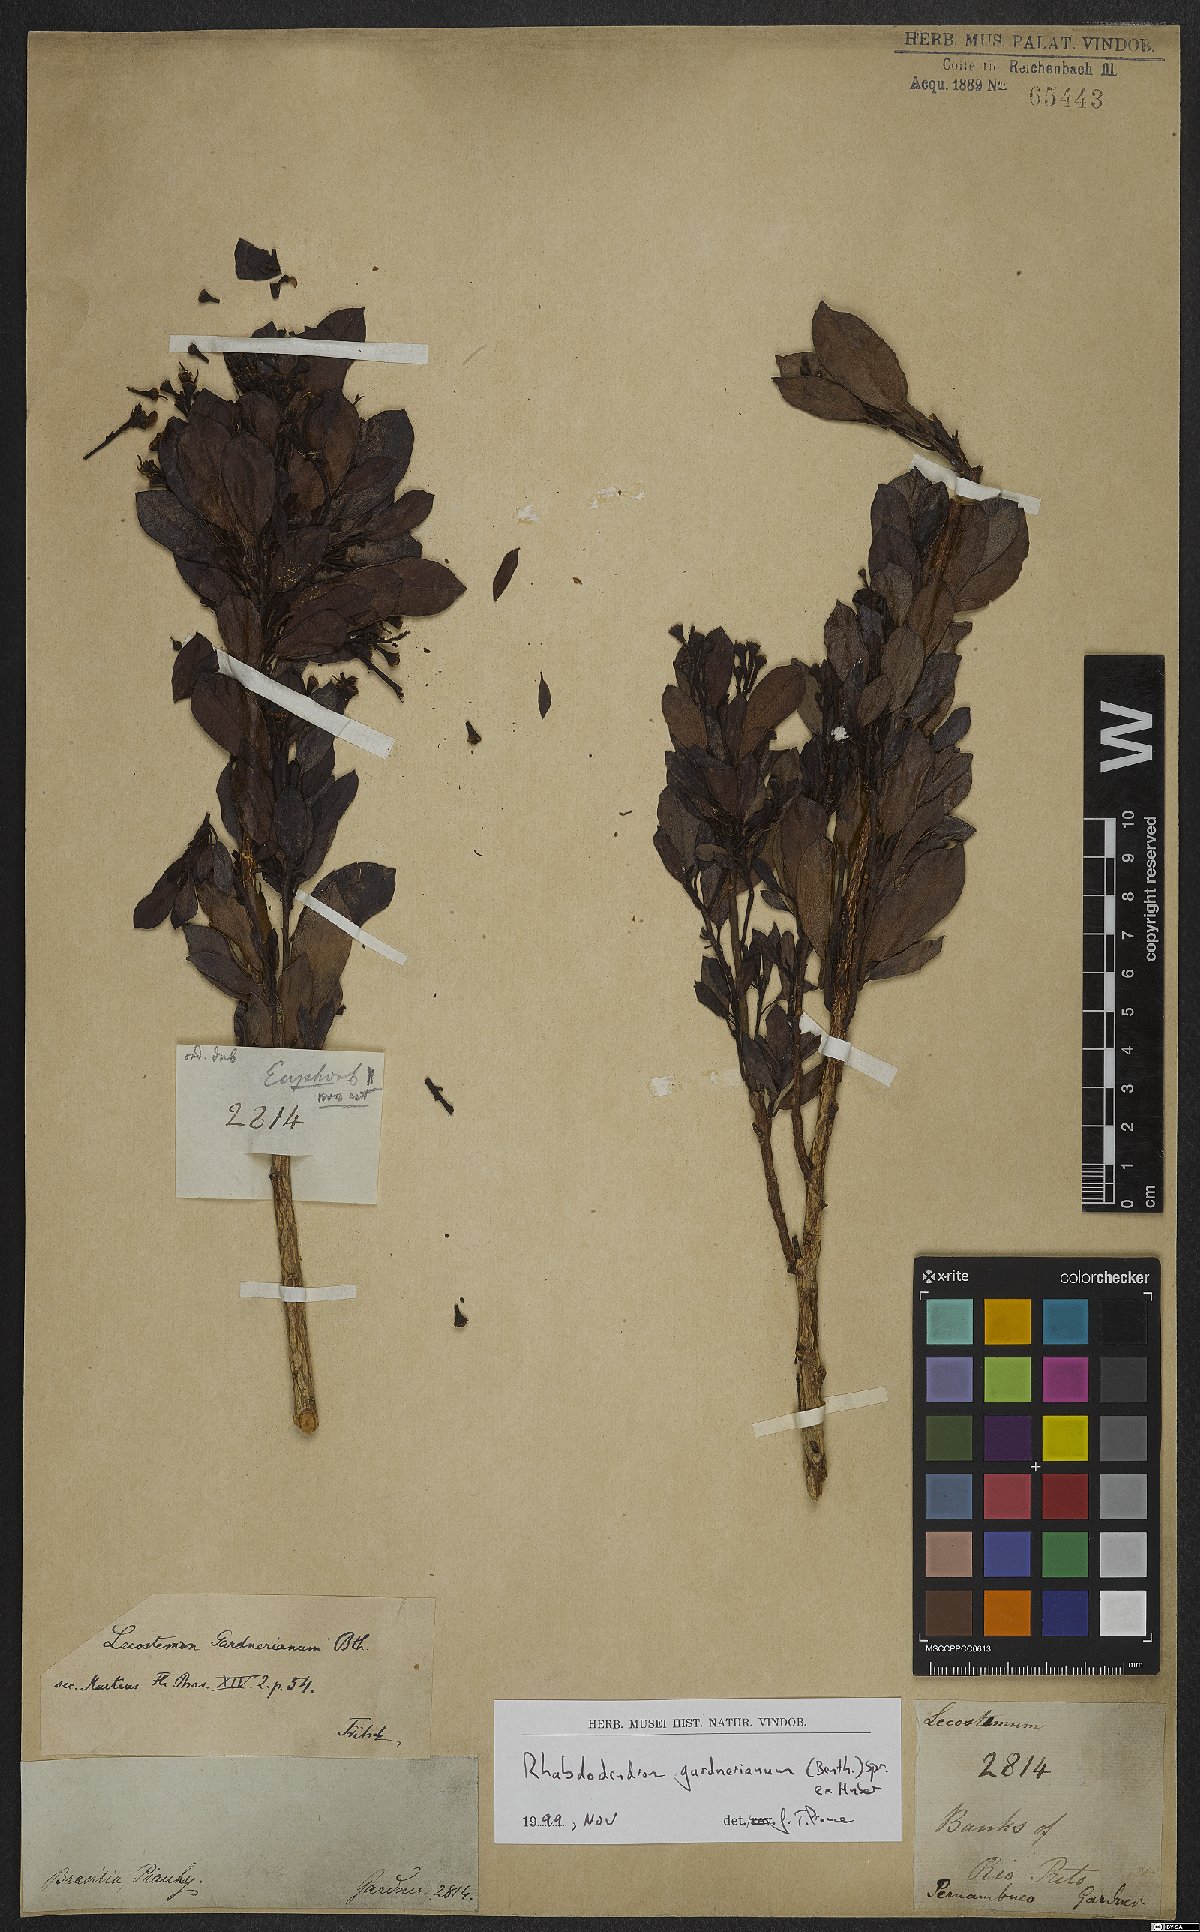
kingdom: Plantae
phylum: Tracheophyta
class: Magnoliopsida
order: Caryophyllales
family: Rhabdodendraceae
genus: Rhabdodendron
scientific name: Rhabdodendron gardnerianum
